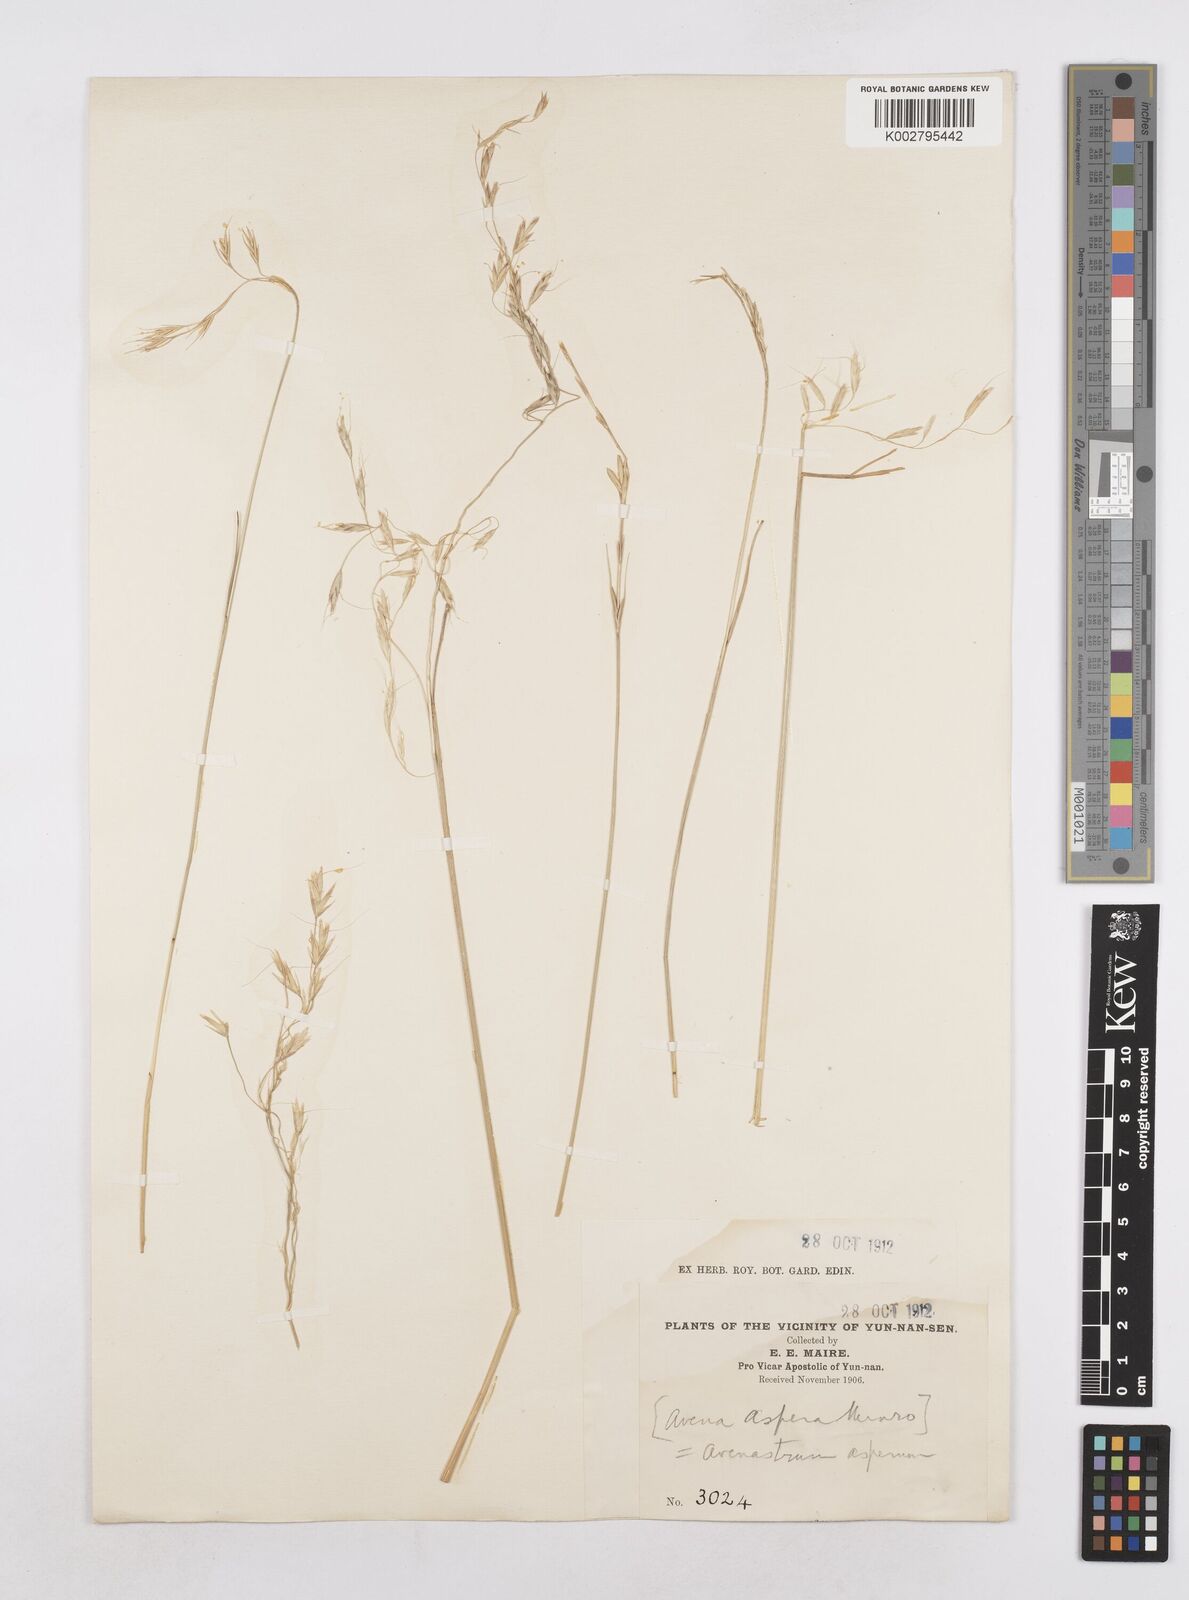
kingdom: Plantae
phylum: Tracheophyta
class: Liliopsida
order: Poales
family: Poaceae
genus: Trisetopsis
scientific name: Trisetopsis junghuhnii
